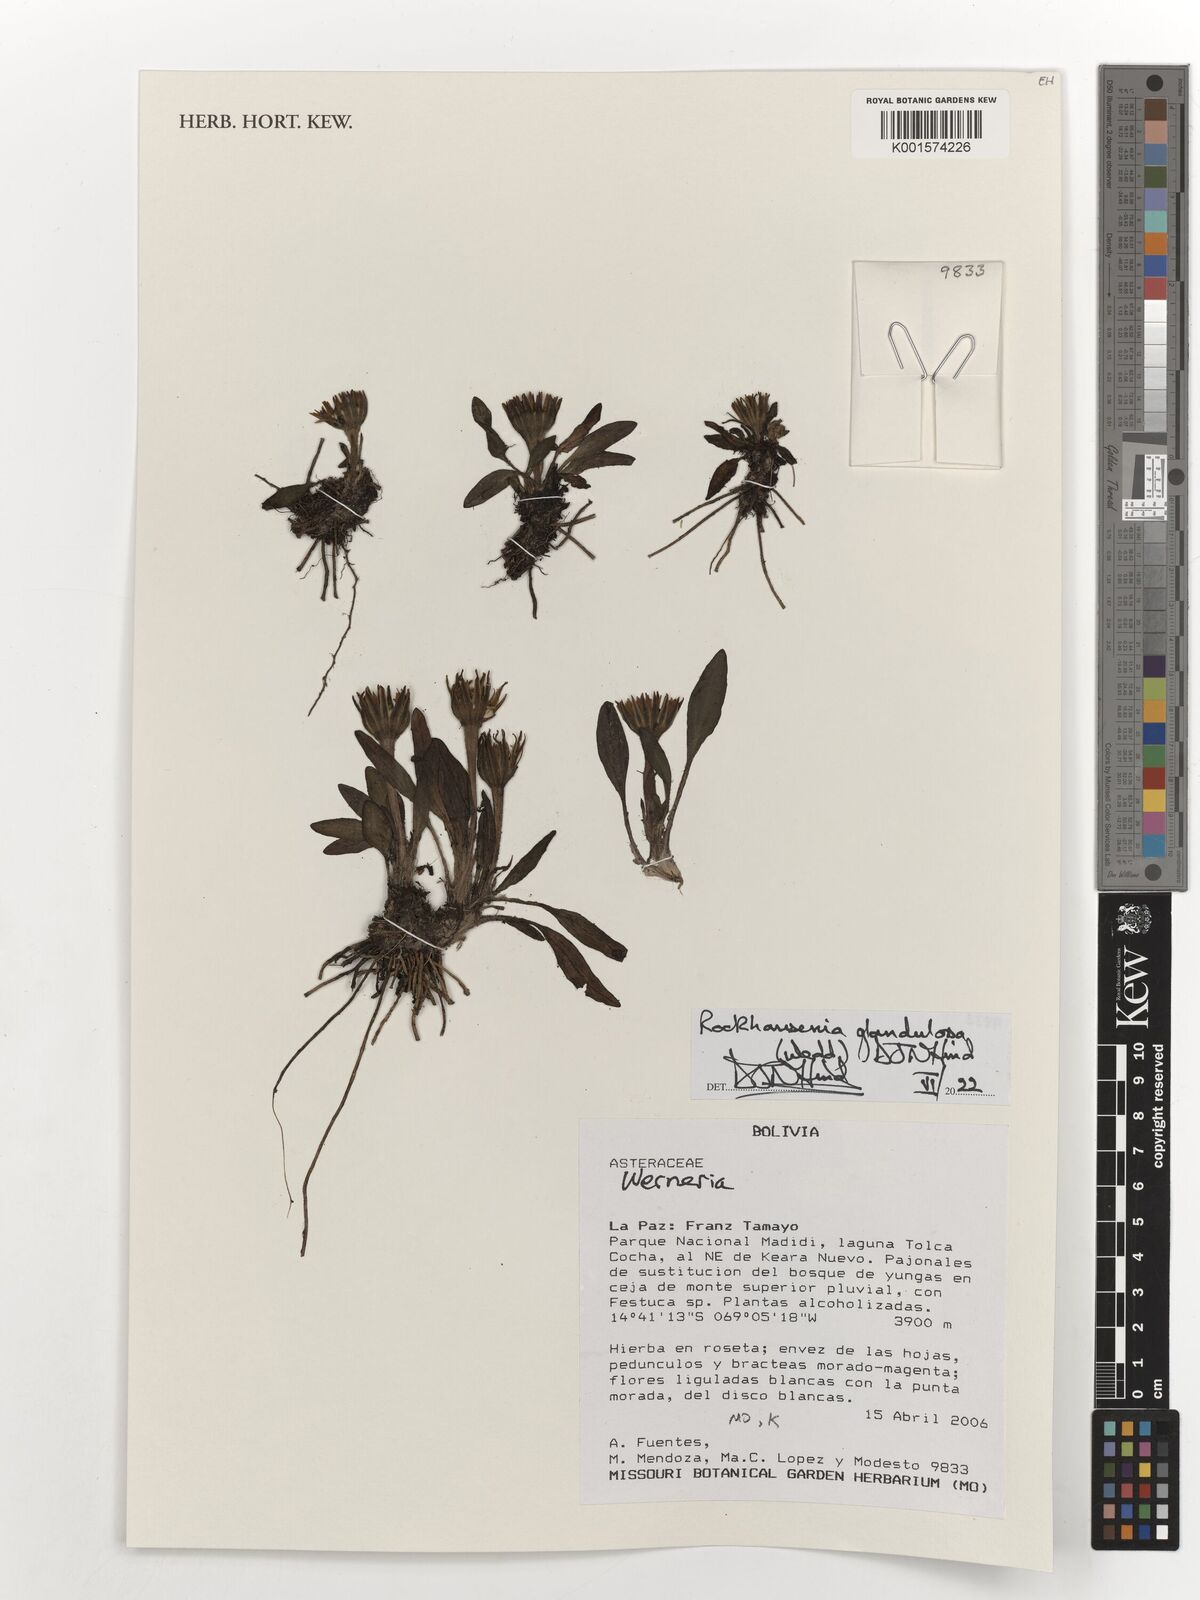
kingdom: Plantae
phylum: Tracheophyta
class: Magnoliopsida
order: Asterales
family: Asteraceae
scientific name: Asteraceae
